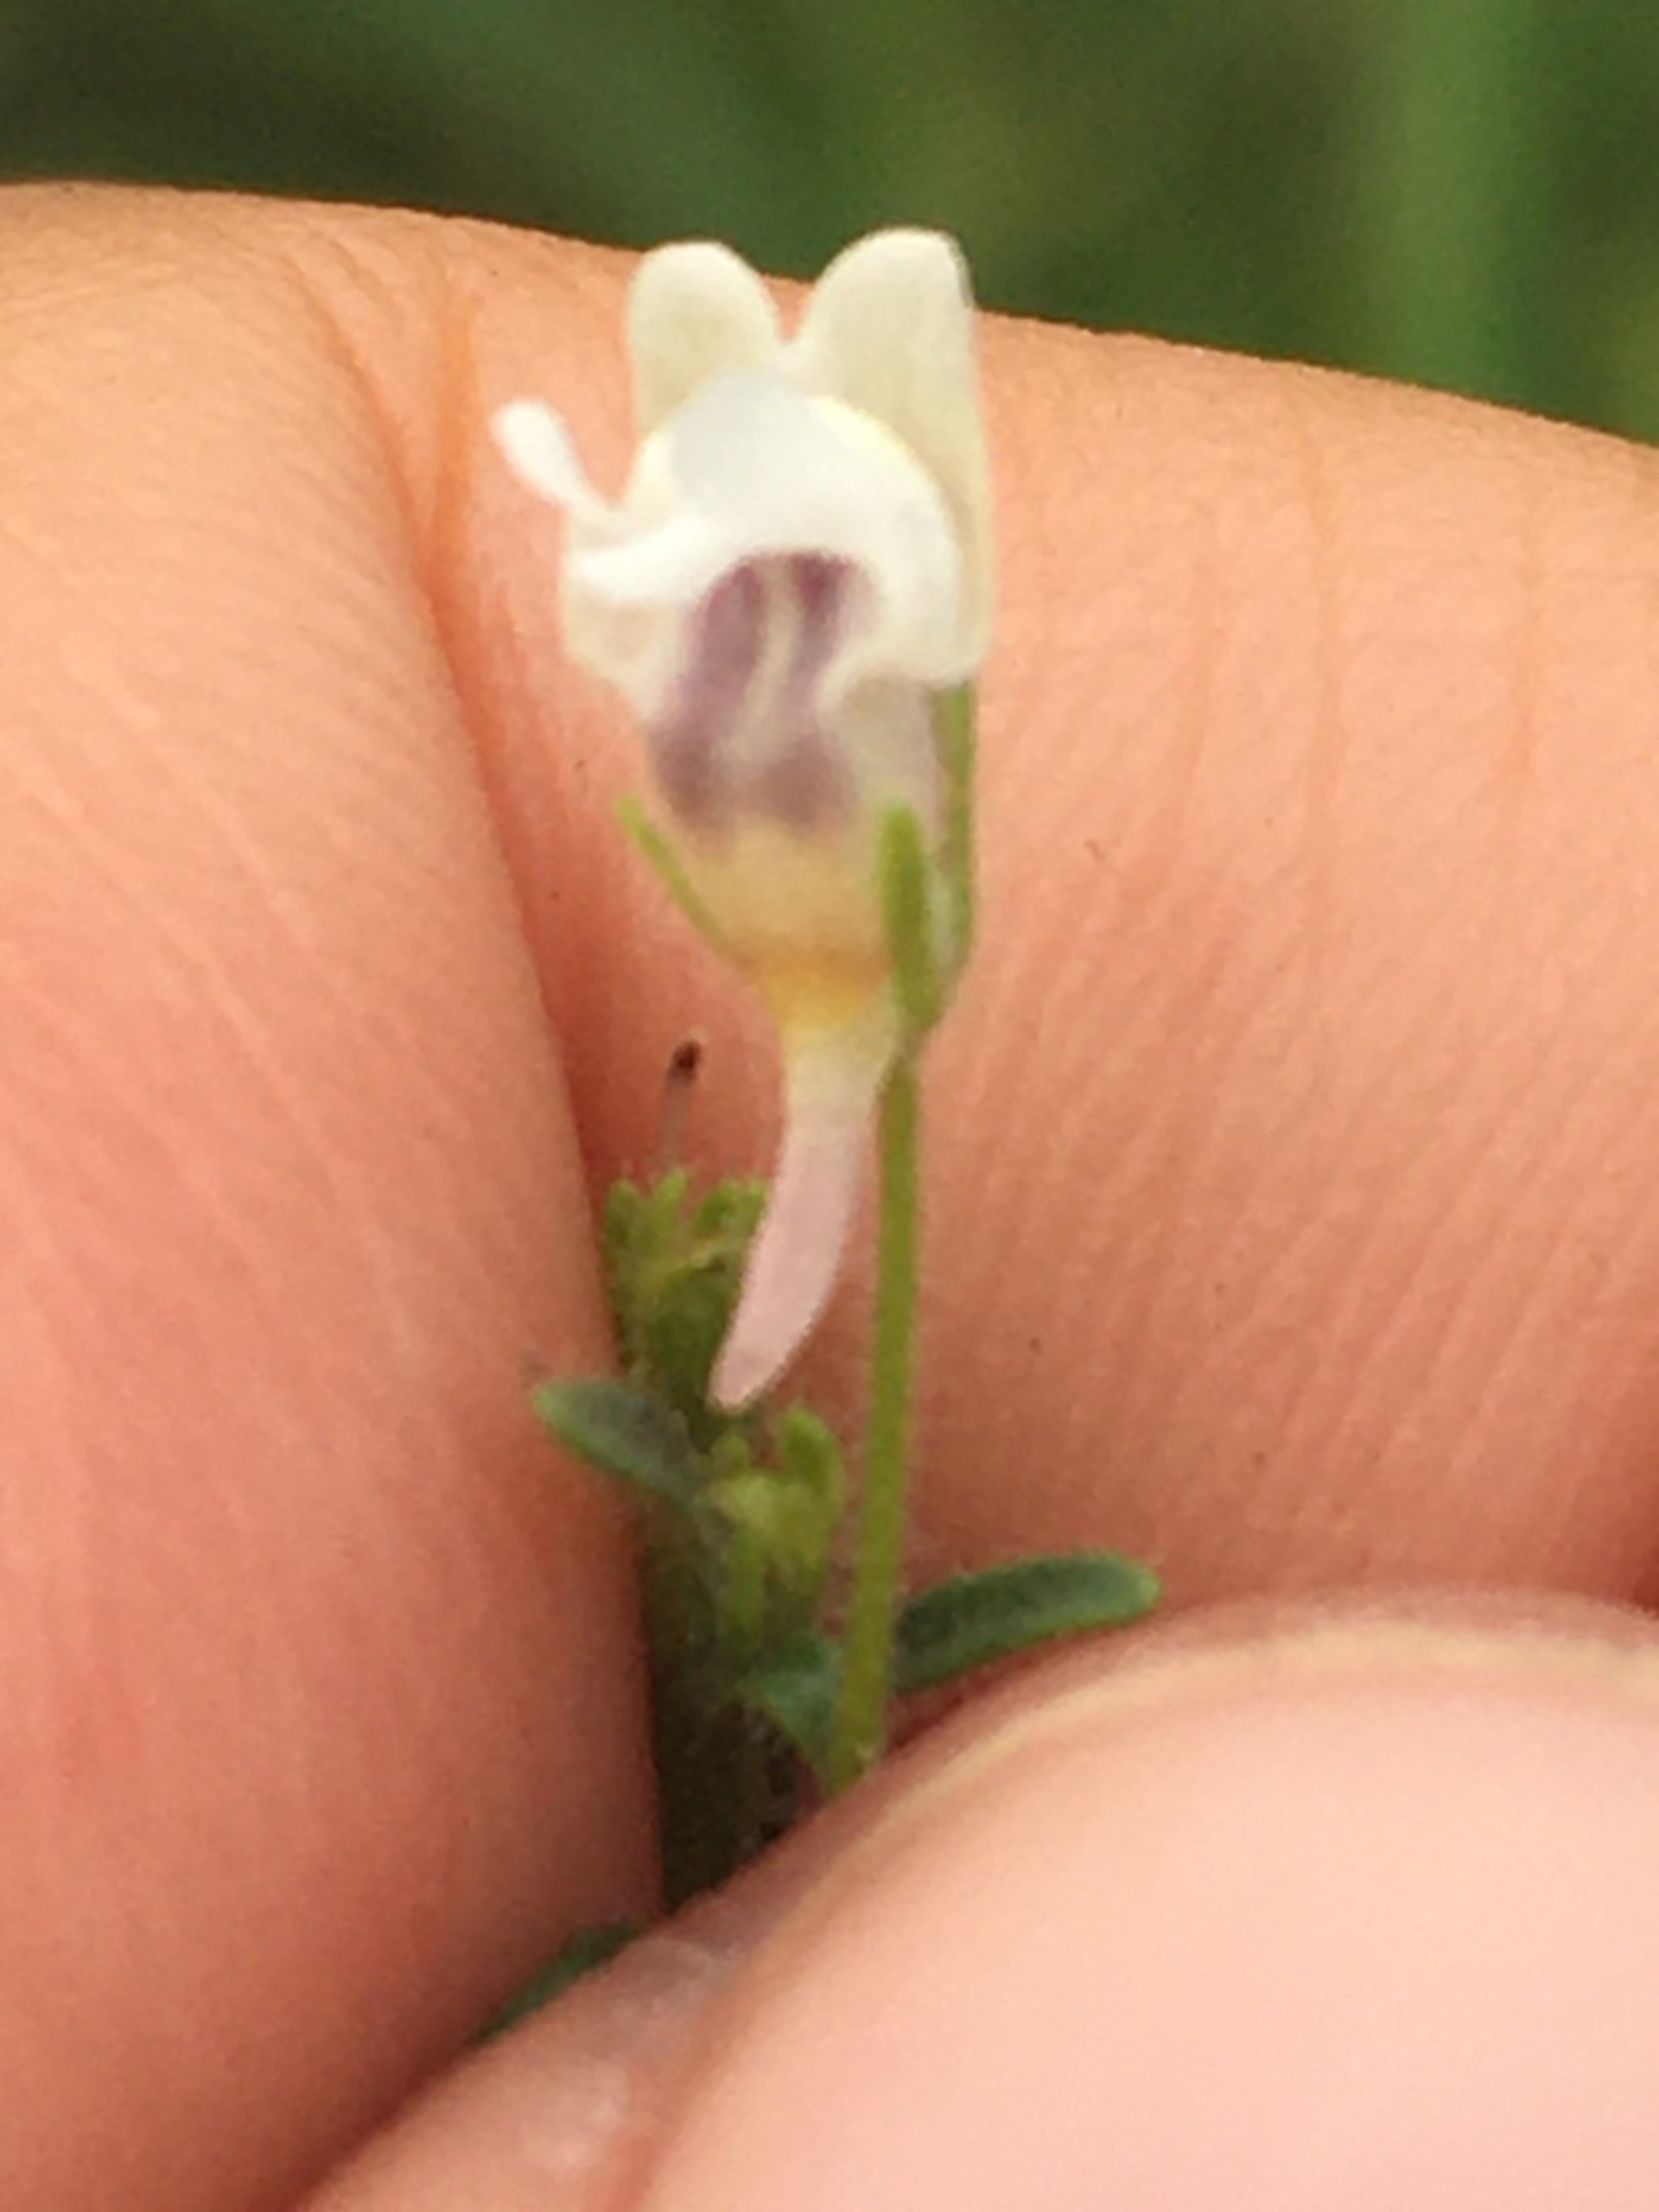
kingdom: Plantae
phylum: Tracheophyta
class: Magnoliopsida
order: Lamiales
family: Plantaginaceae
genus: Chaenorhinum
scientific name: Chaenorhinum minus
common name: Liden torskemund
